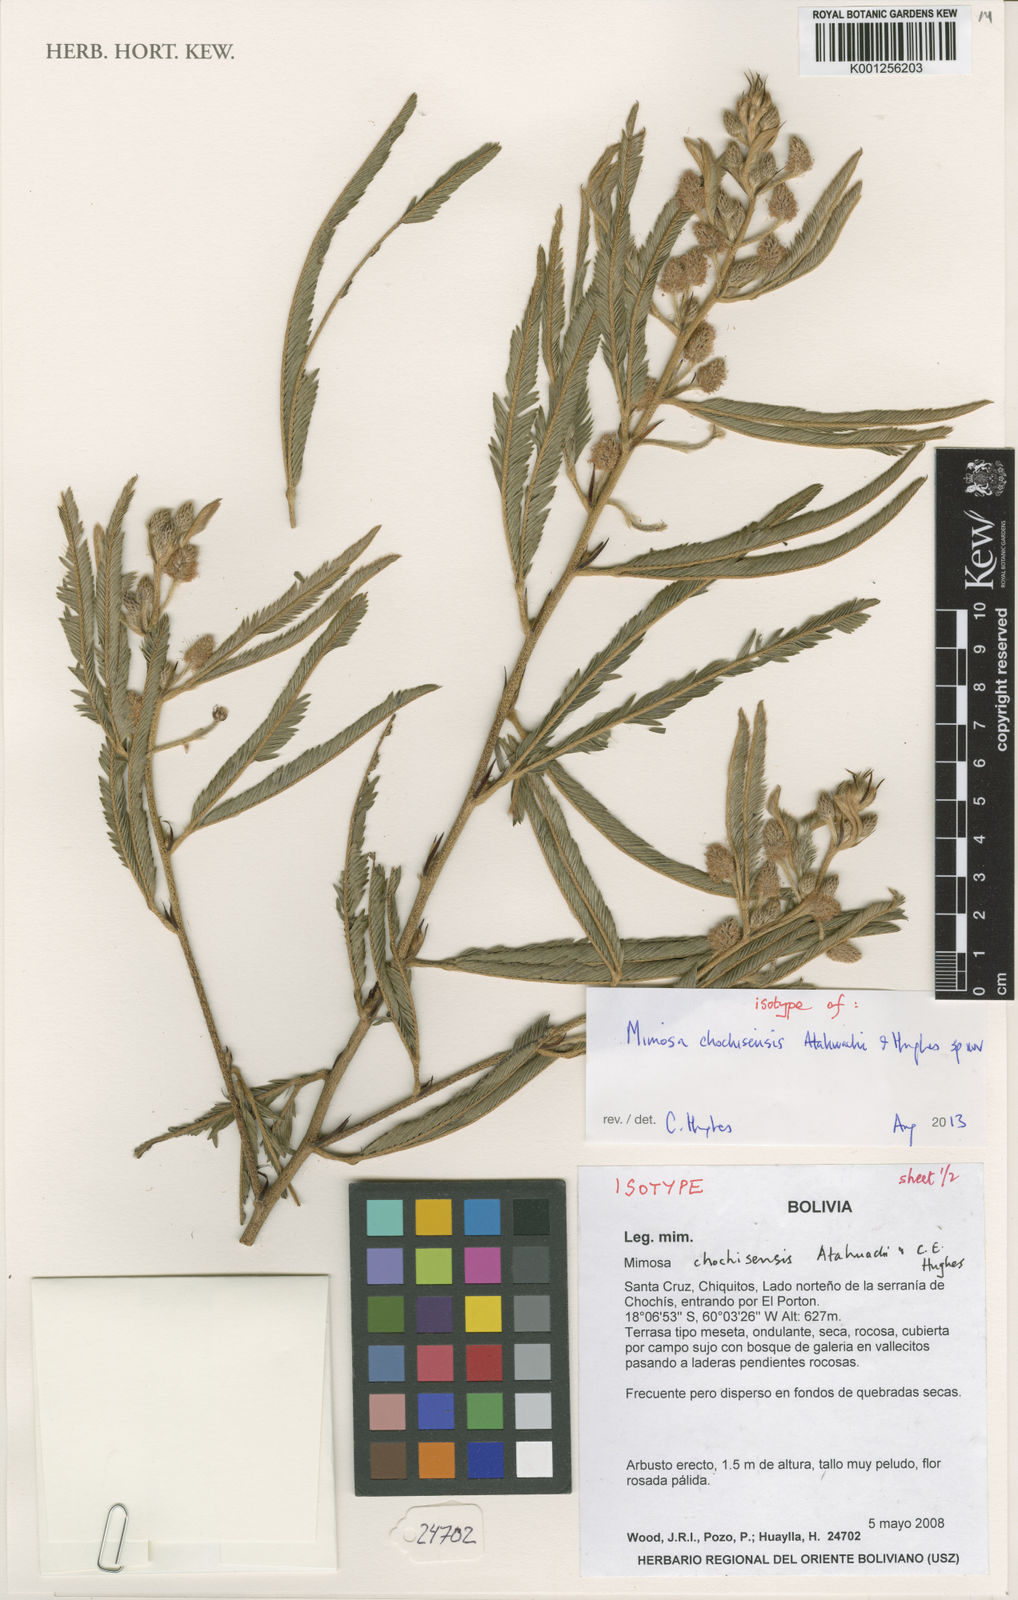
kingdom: Plantae
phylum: Tracheophyta
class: Magnoliopsida
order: Fabales
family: Fabaceae
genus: Mimosa
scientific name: Mimosa chochisensis
